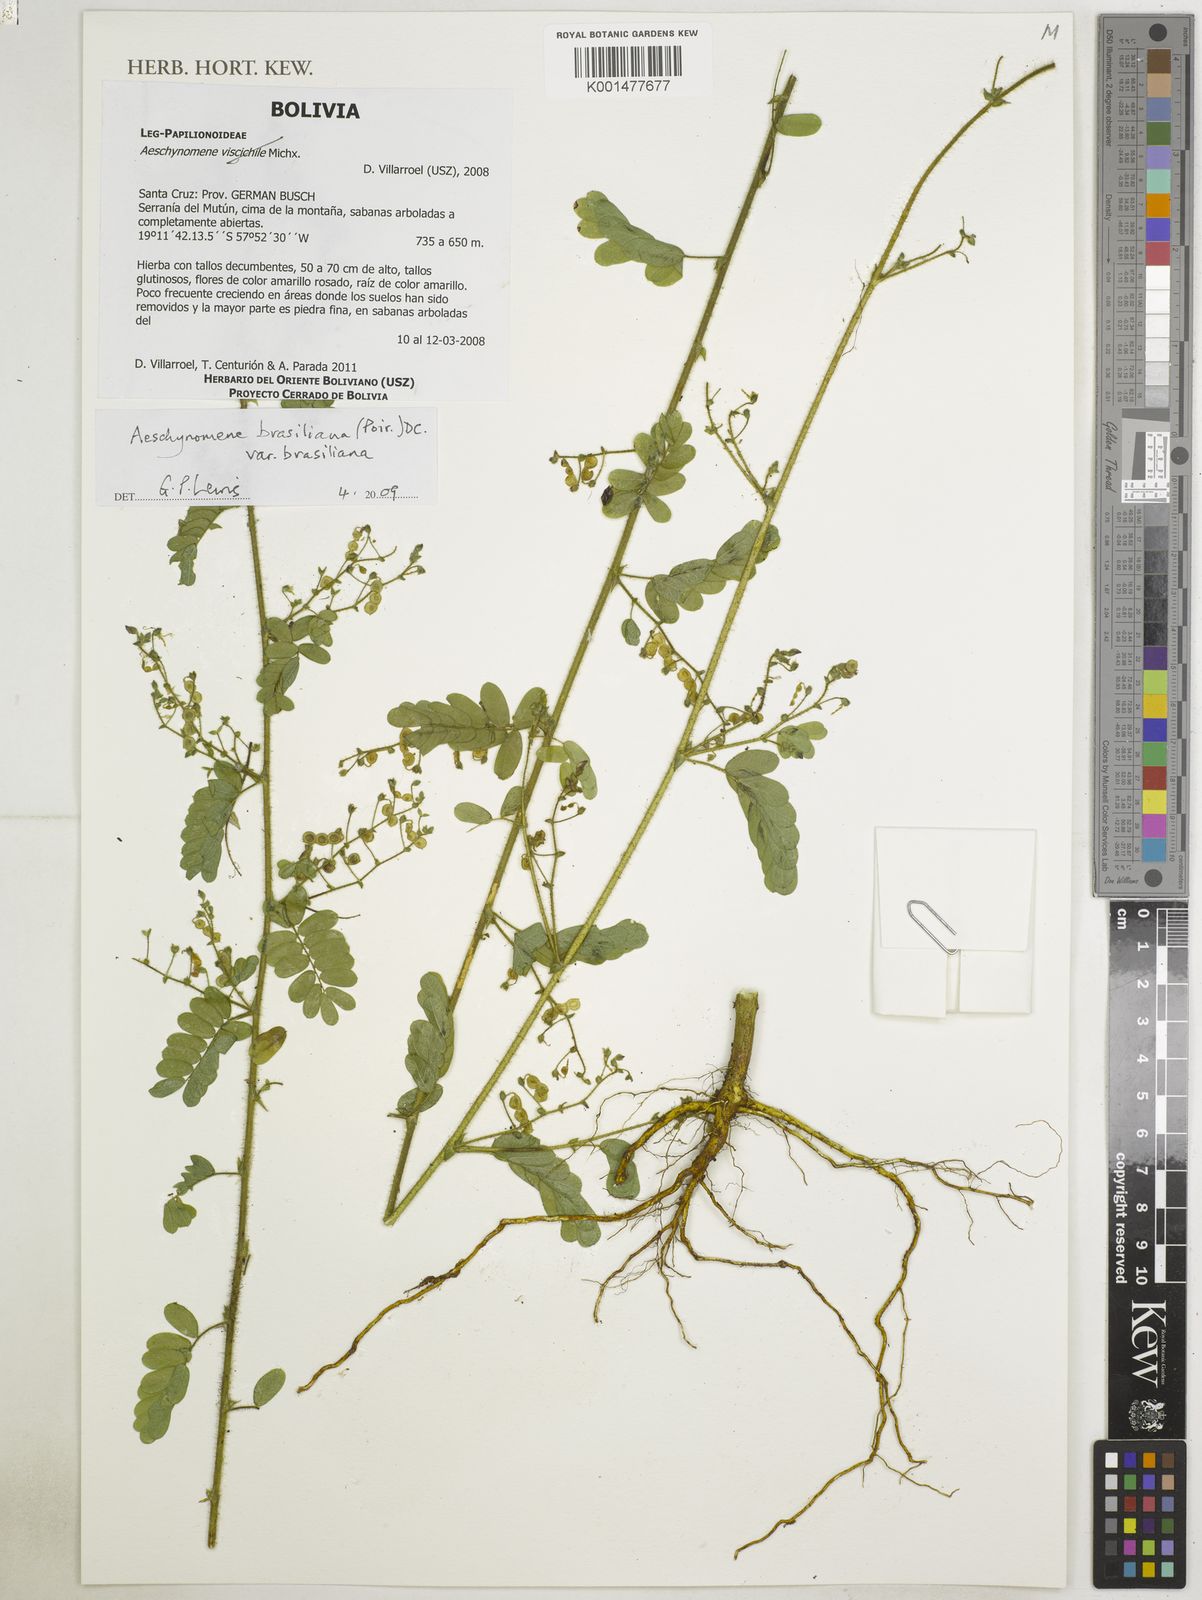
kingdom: Plantae
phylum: Tracheophyta
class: Magnoliopsida
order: Fabales
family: Fabaceae
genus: Ctenodon
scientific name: Ctenodon brasilianus
